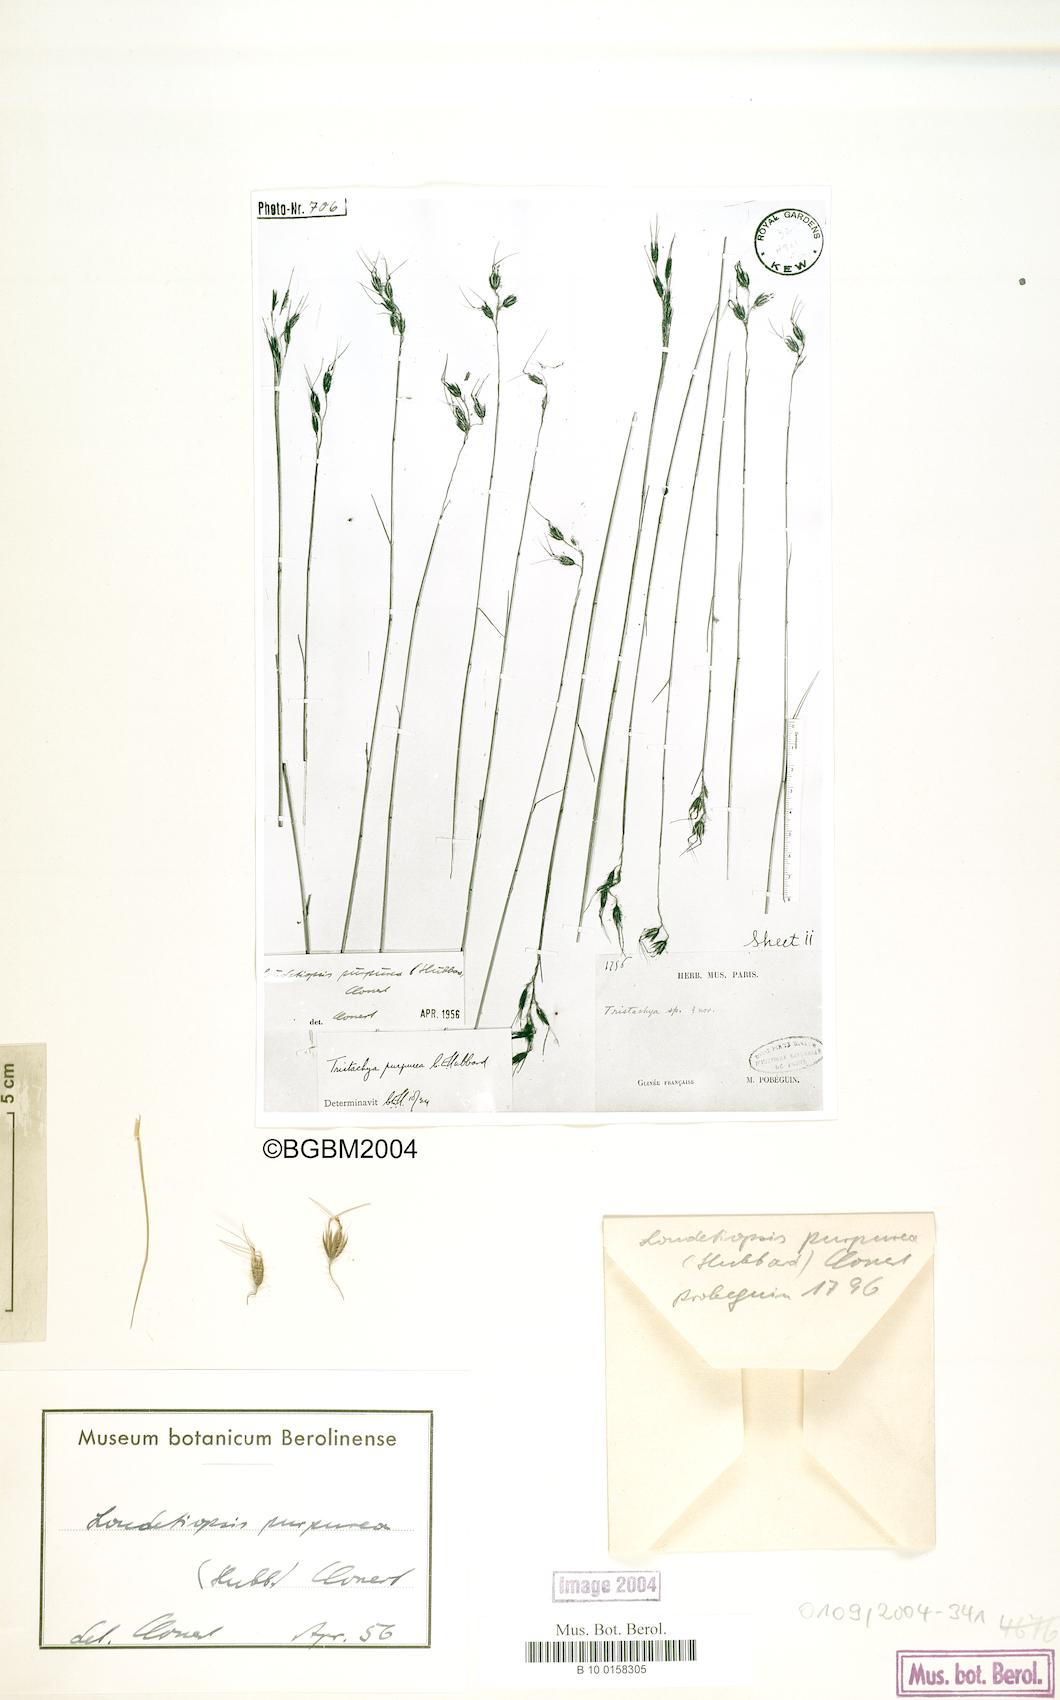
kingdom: Plantae
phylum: Tracheophyta
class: Liliopsida
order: Poales
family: Poaceae
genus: Dilophotriche
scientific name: Dilophotriche tristachyoides
